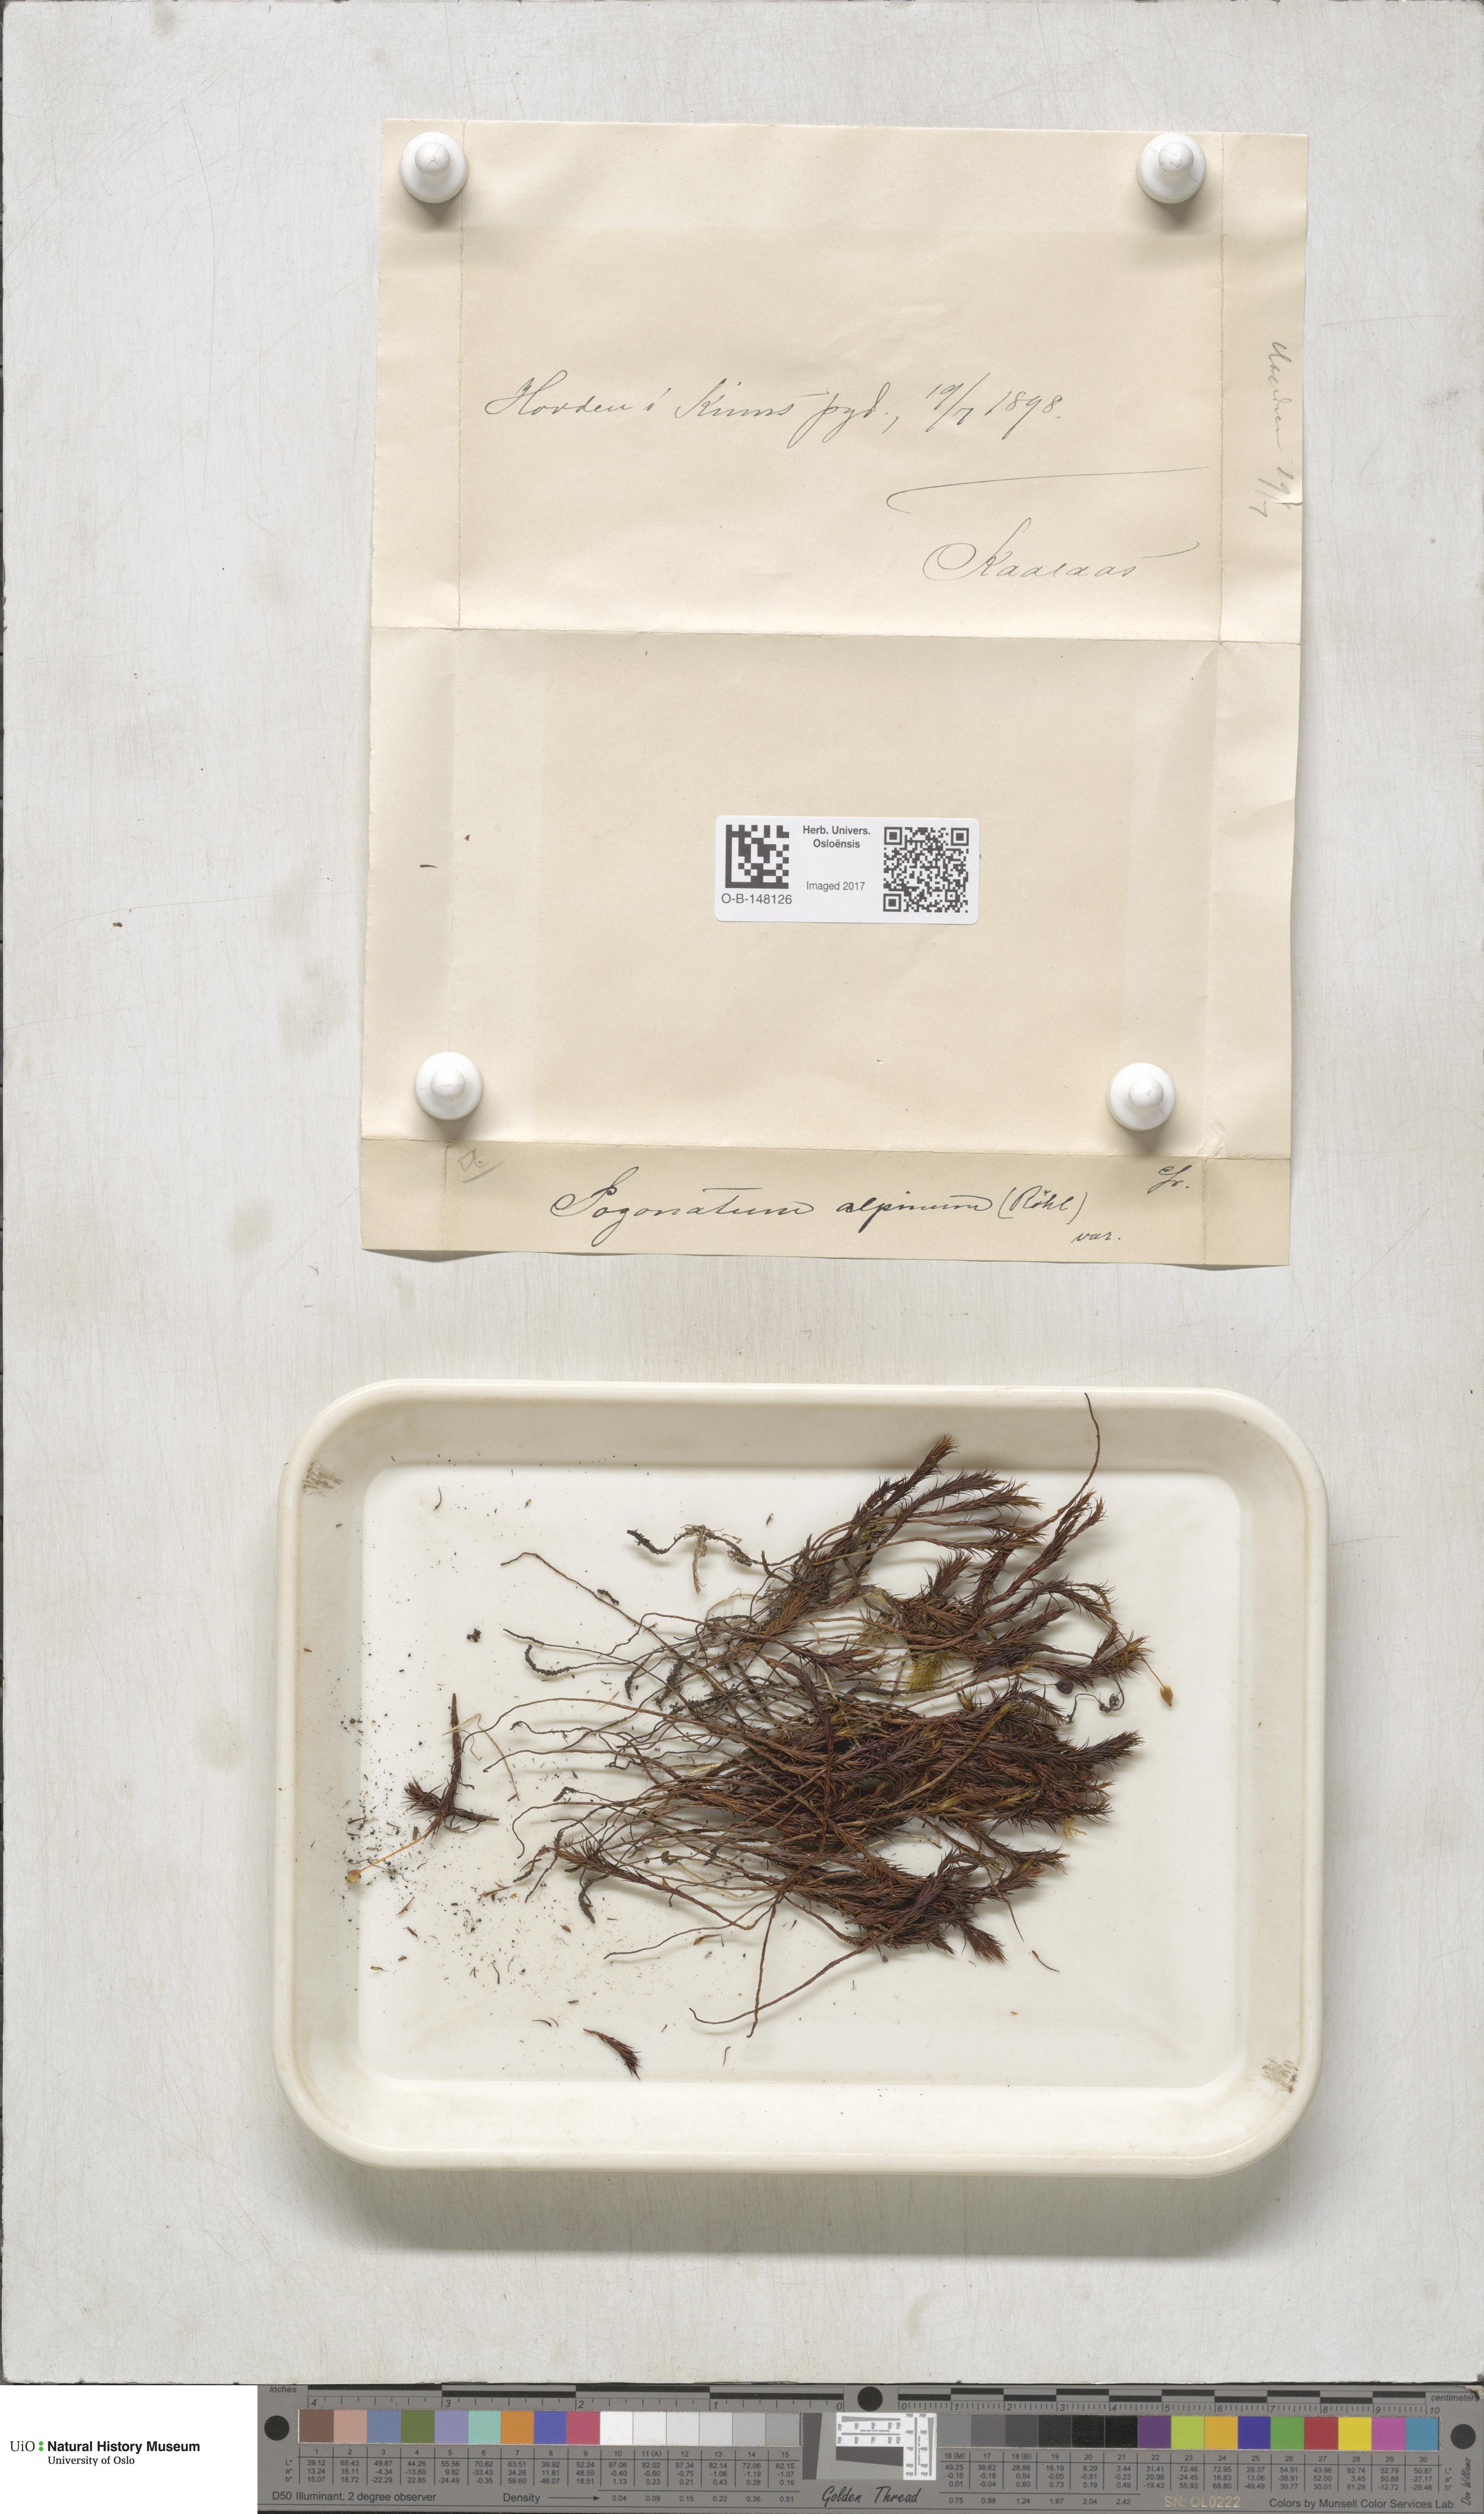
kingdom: Plantae
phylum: Bryophyta
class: Polytrichopsida
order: Polytrichales
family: Polytrichaceae
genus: Polytrichastrum
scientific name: Polytrichastrum alpinum
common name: Alpine haircap
